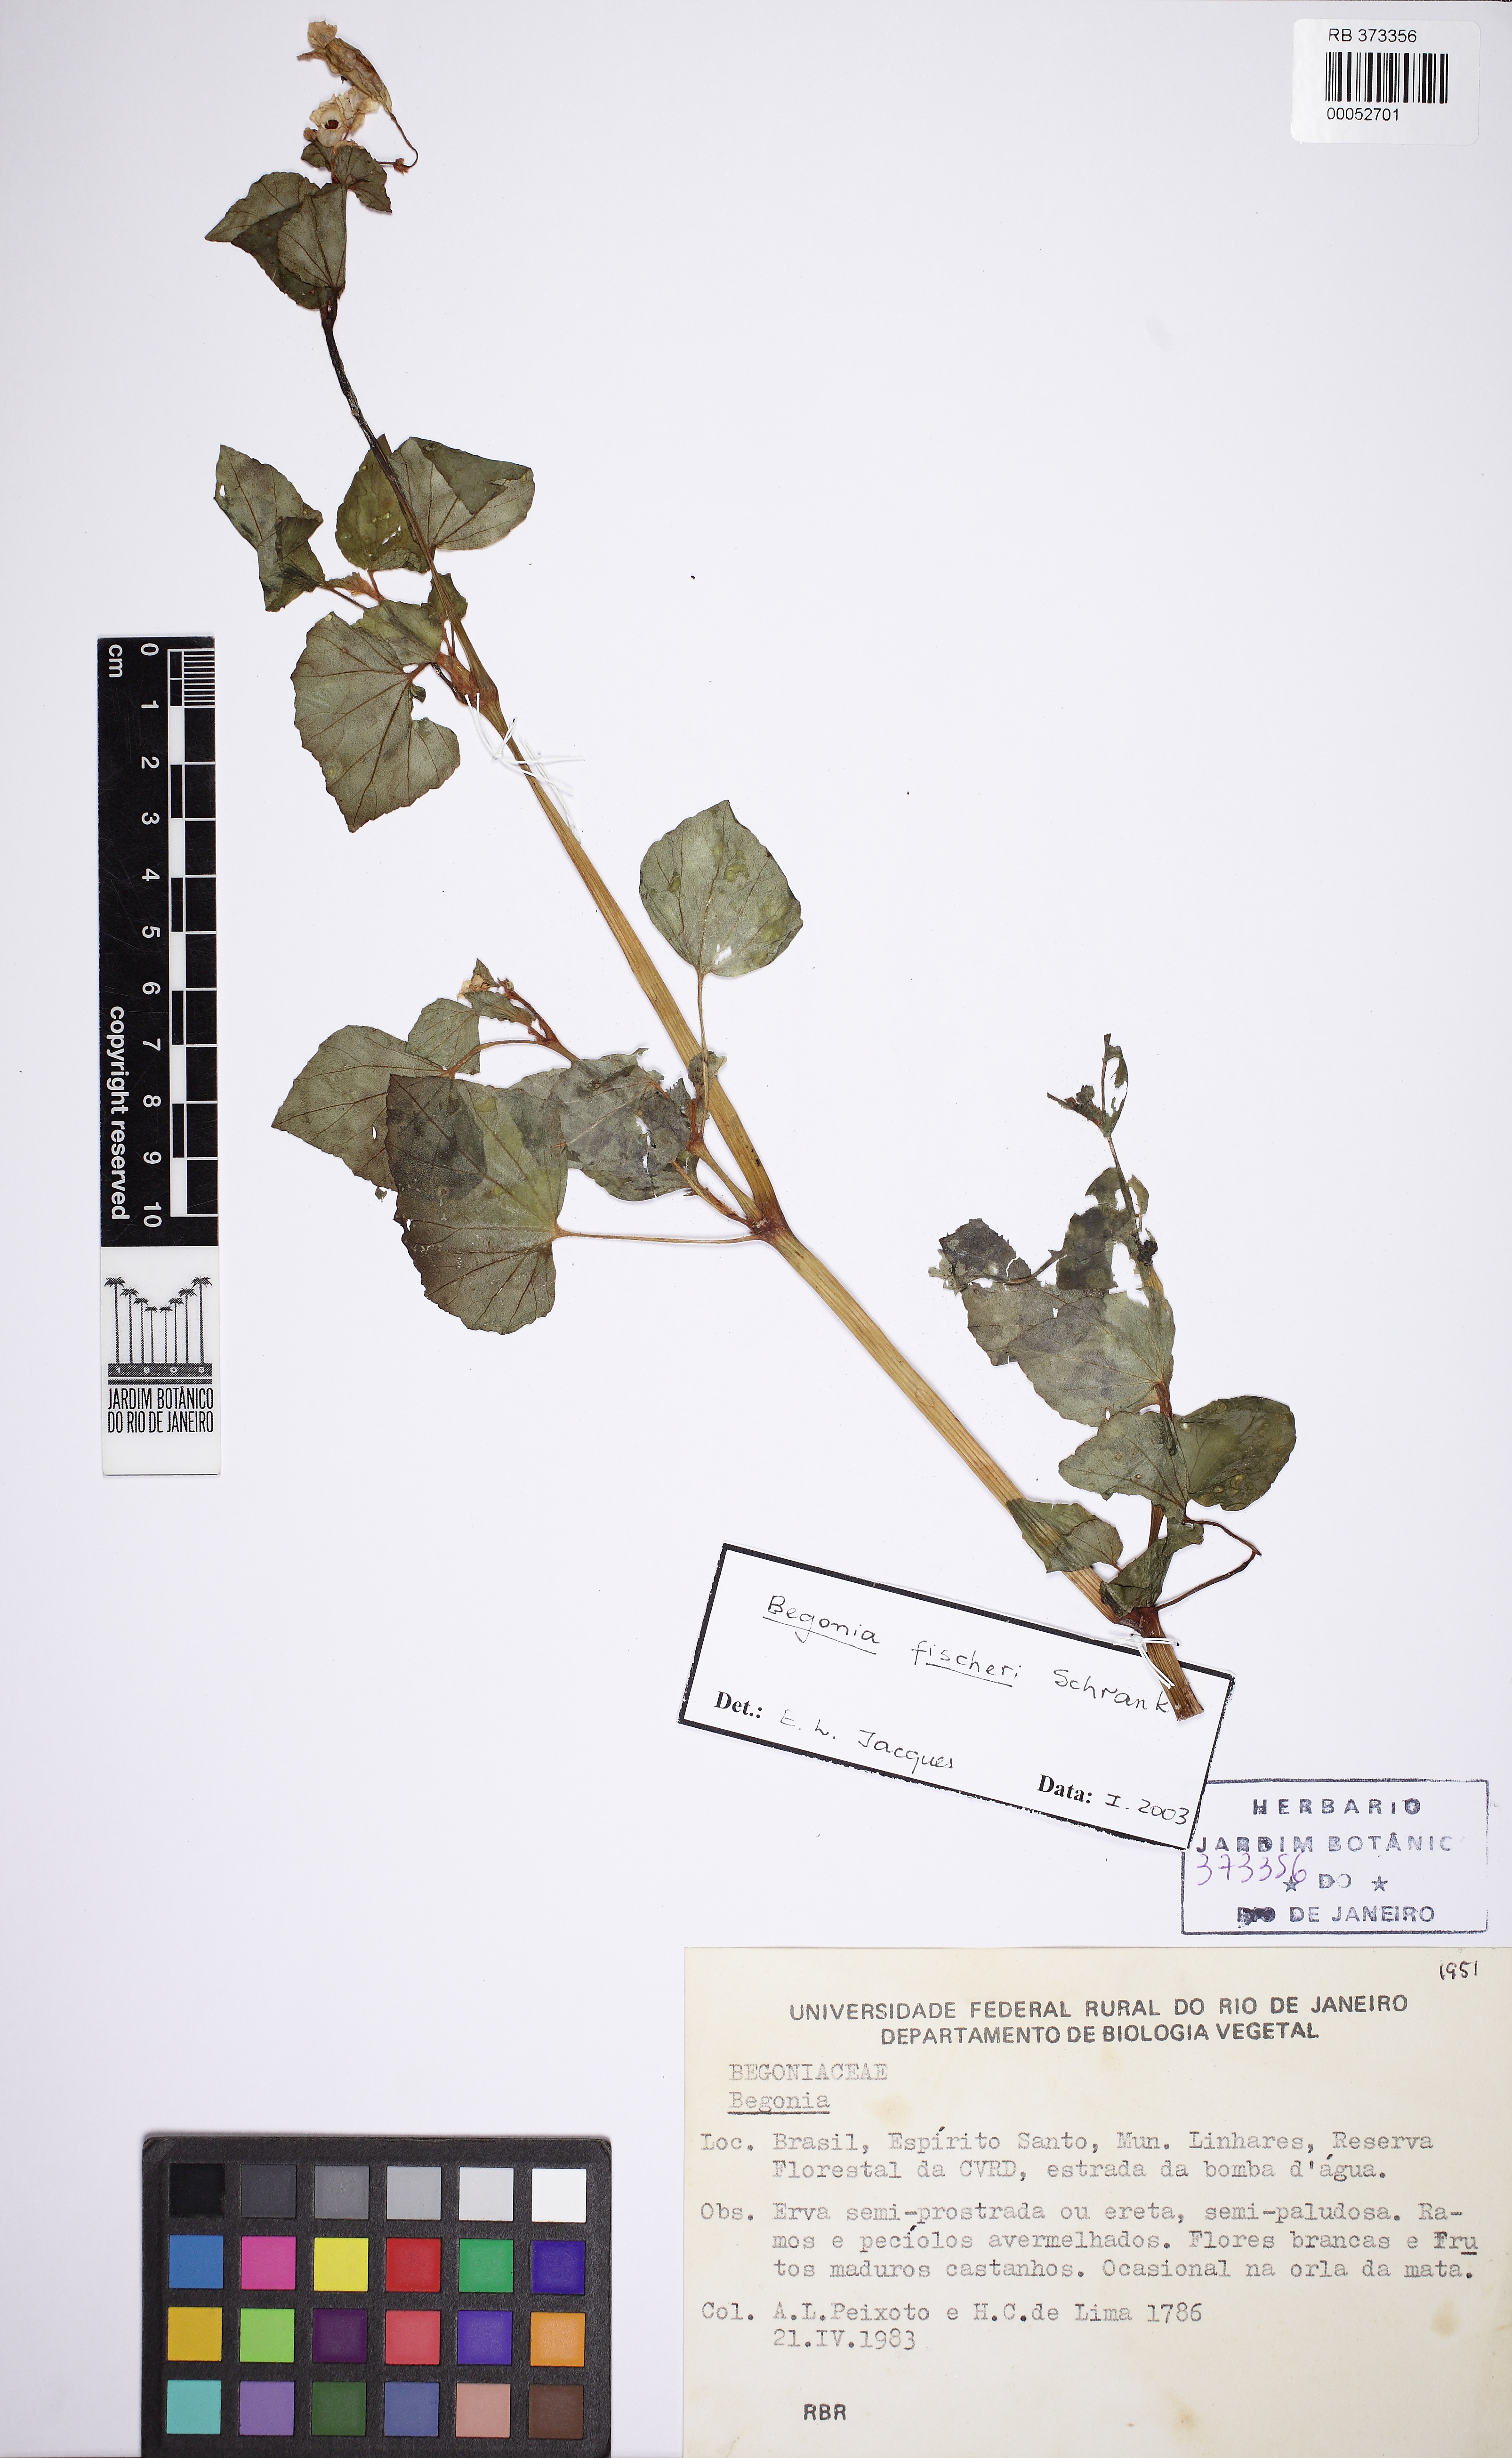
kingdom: Plantae
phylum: Tracheophyta
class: Magnoliopsida
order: Cucurbitales
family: Begoniaceae
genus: Begonia
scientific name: Begonia fischeri
